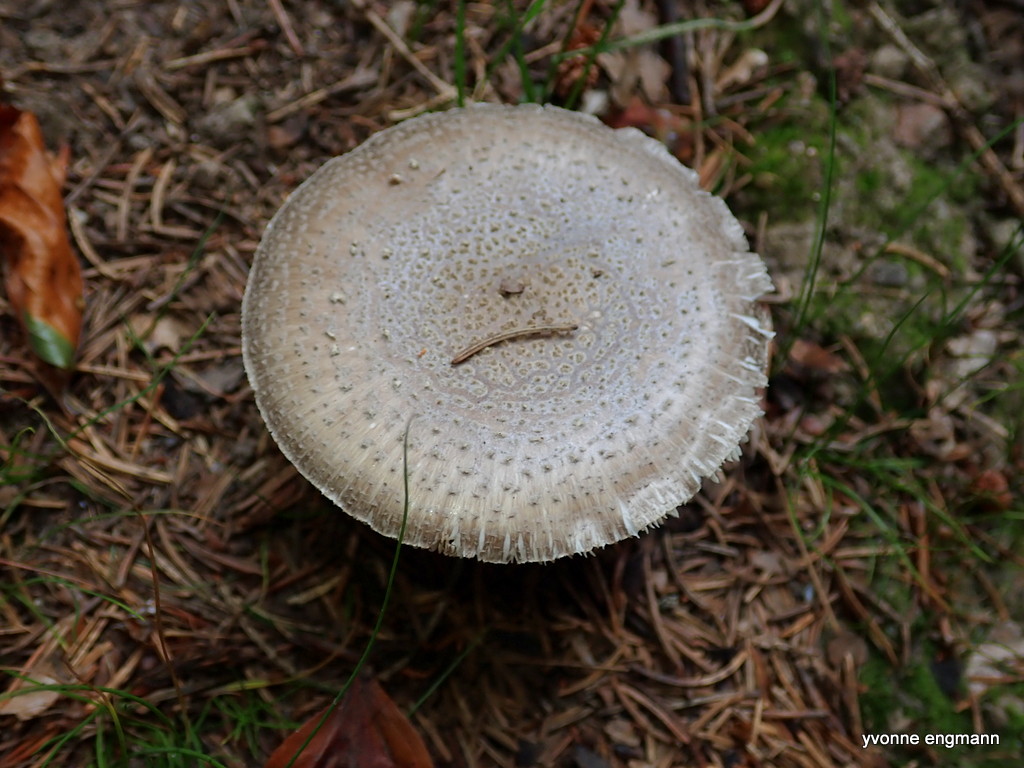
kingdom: Fungi
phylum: Basidiomycota
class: Agaricomycetes
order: Agaricales
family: Amanitaceae
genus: Amanita
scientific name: Amanita rubescens
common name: rødmende fluesvamp
